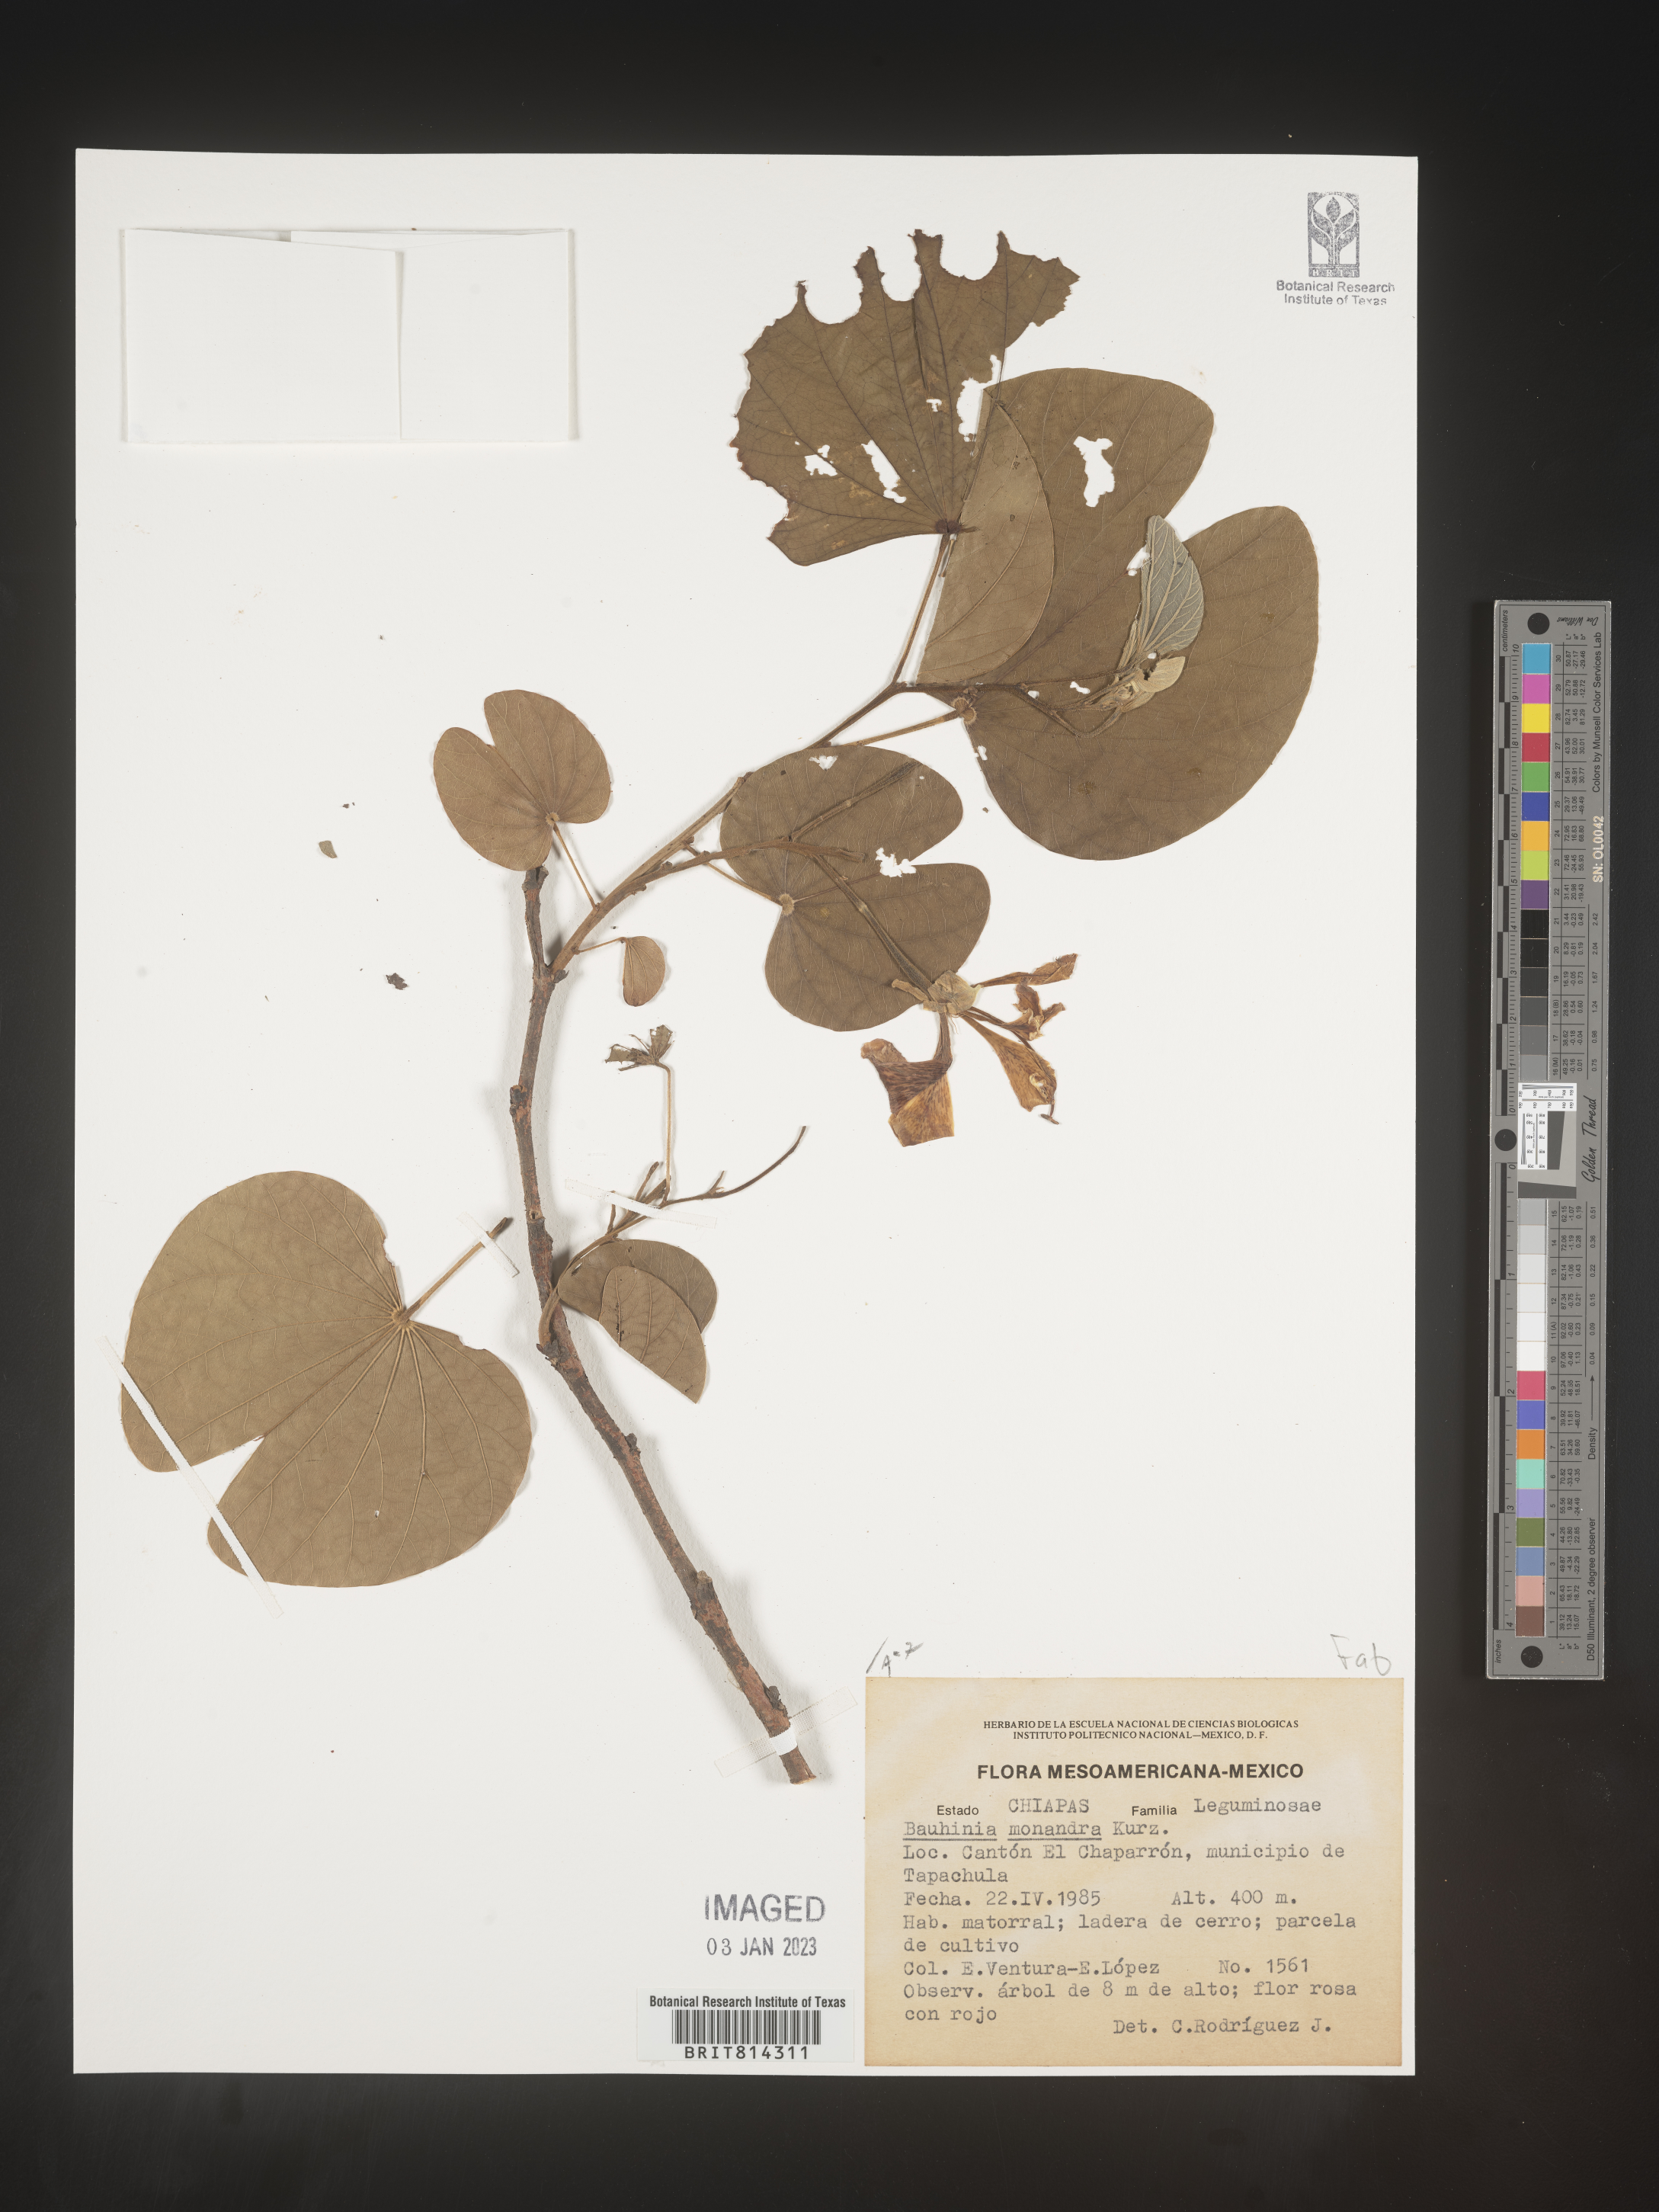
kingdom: Plantae
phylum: Tracheophyta
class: Magnoliopsida
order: Fabales
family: Fabaceae
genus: Bauhinia
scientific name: Bauhinia
